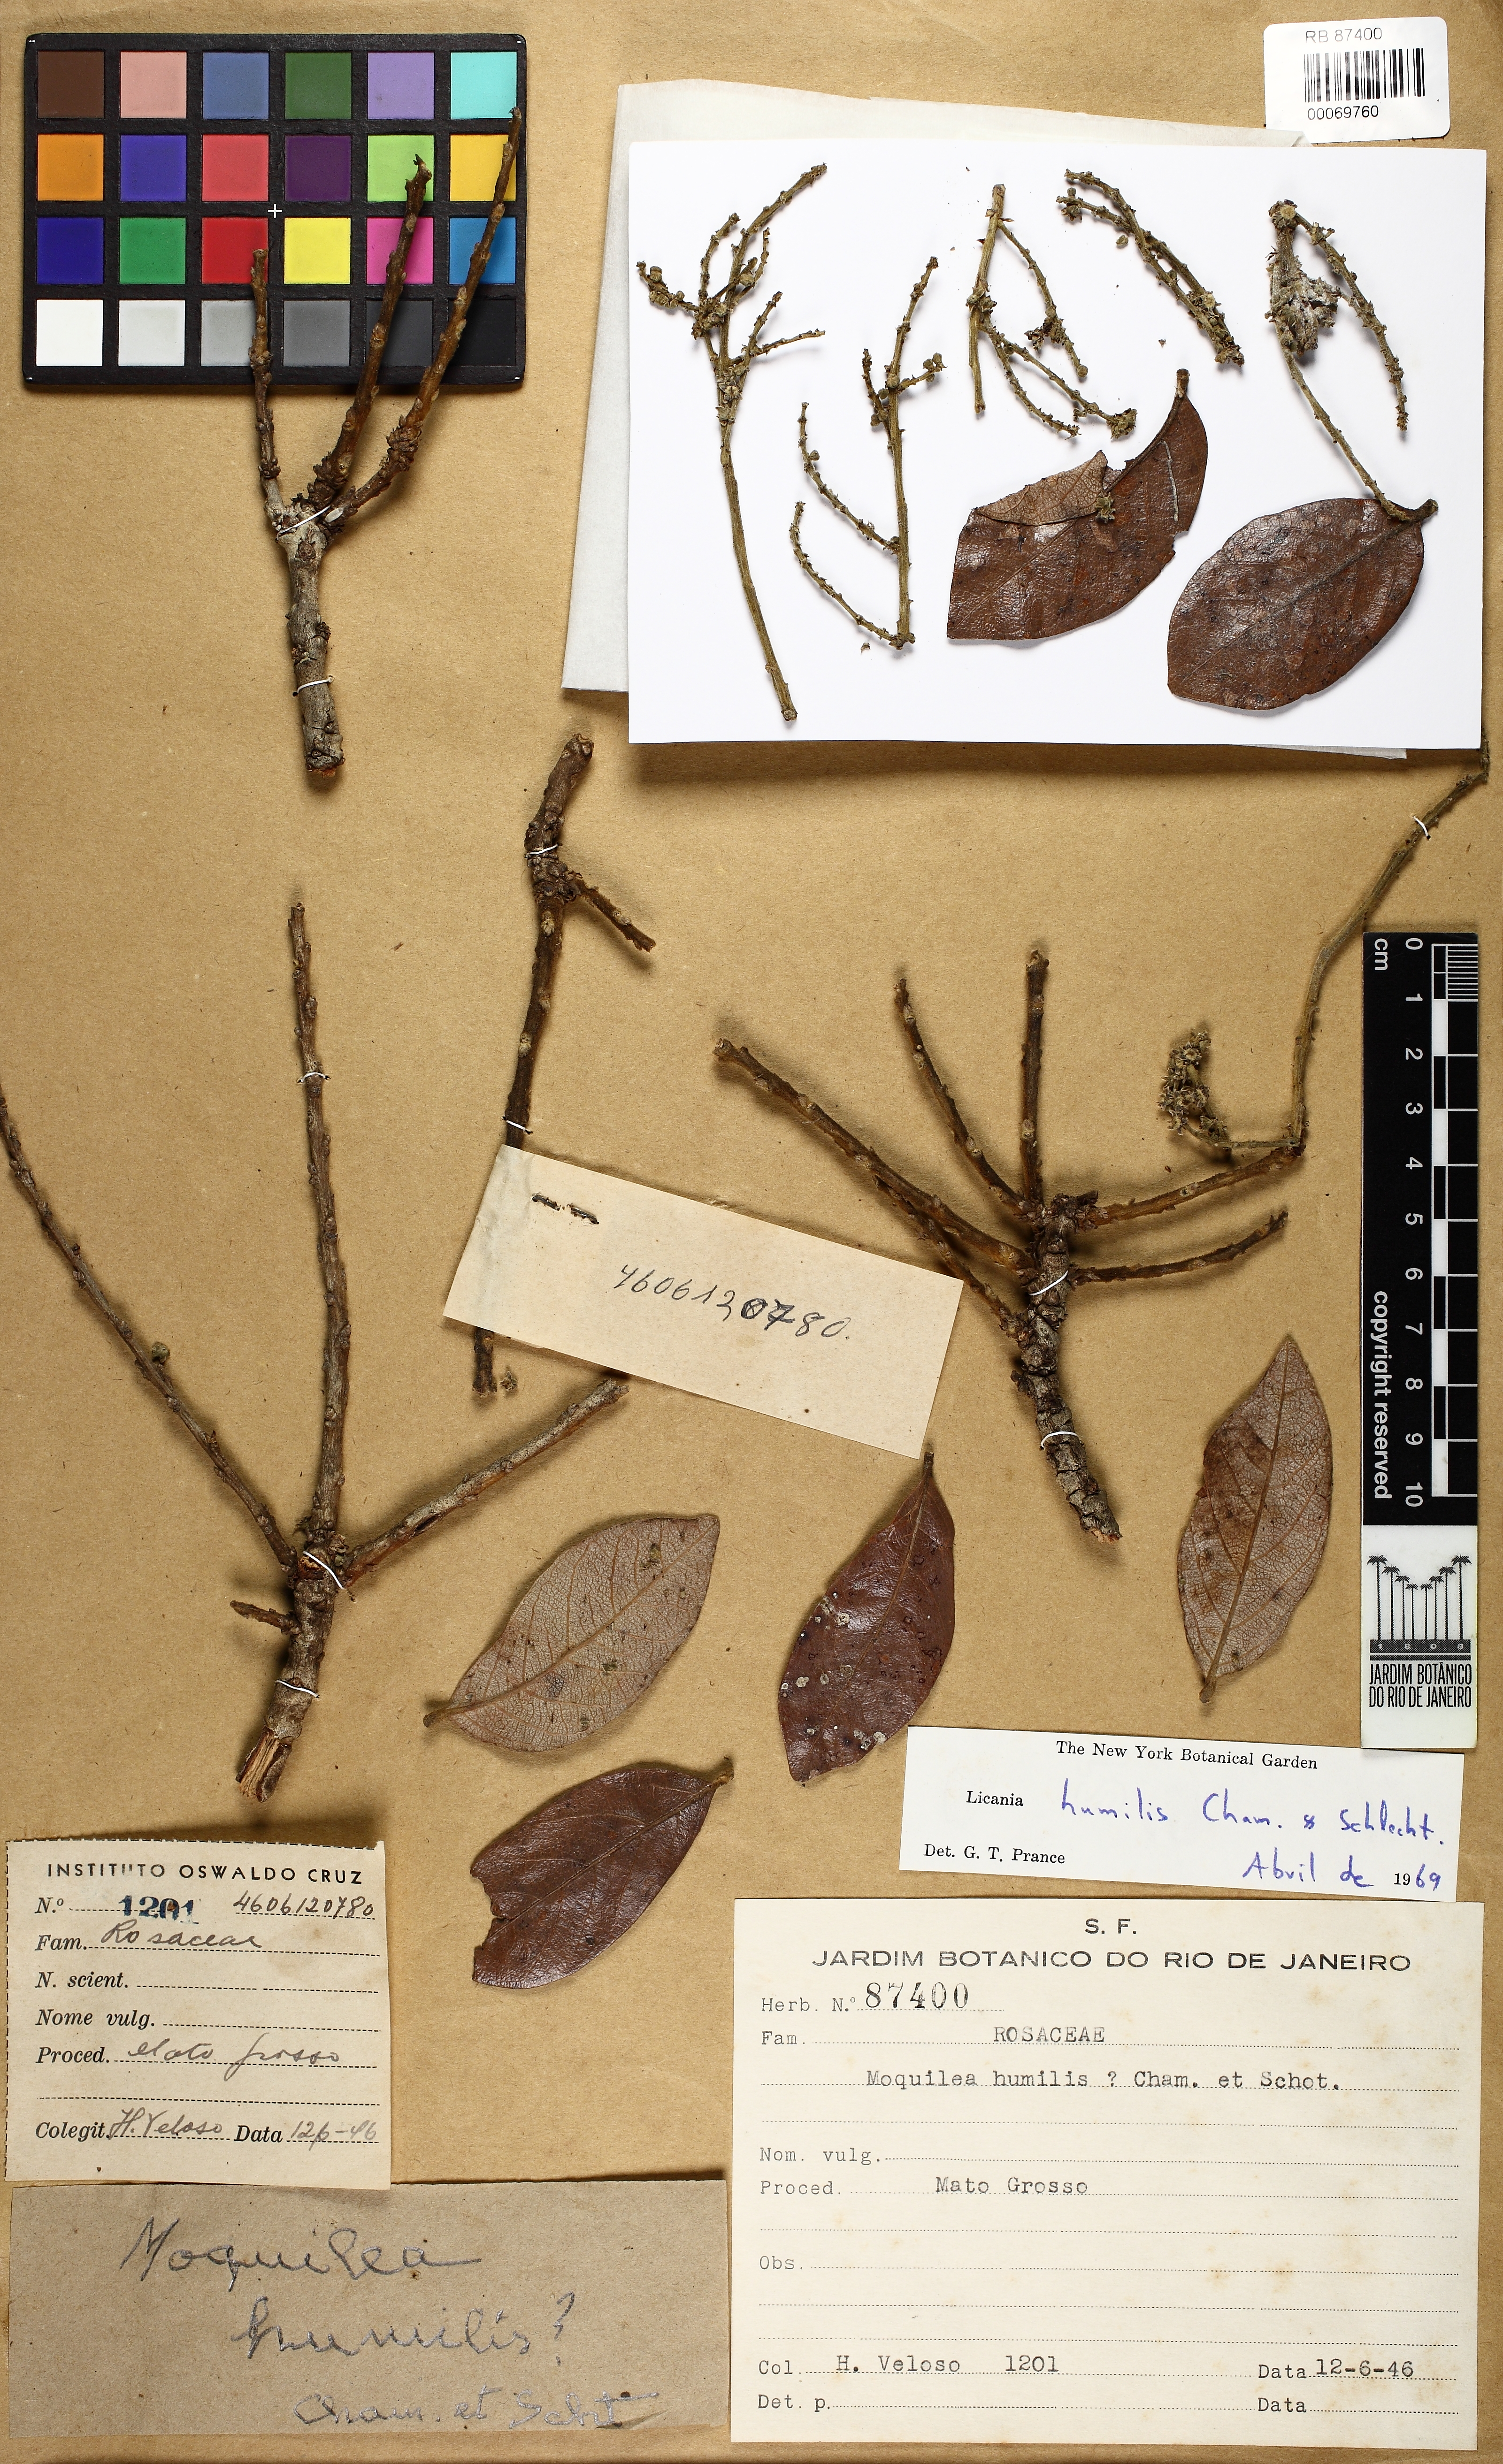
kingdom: Plantae
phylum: Tracheophyta
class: Magnoliopsida
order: Malpighiales
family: Chrysobalanaceae
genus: Leptobalanus
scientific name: Leptobalanus humilis
